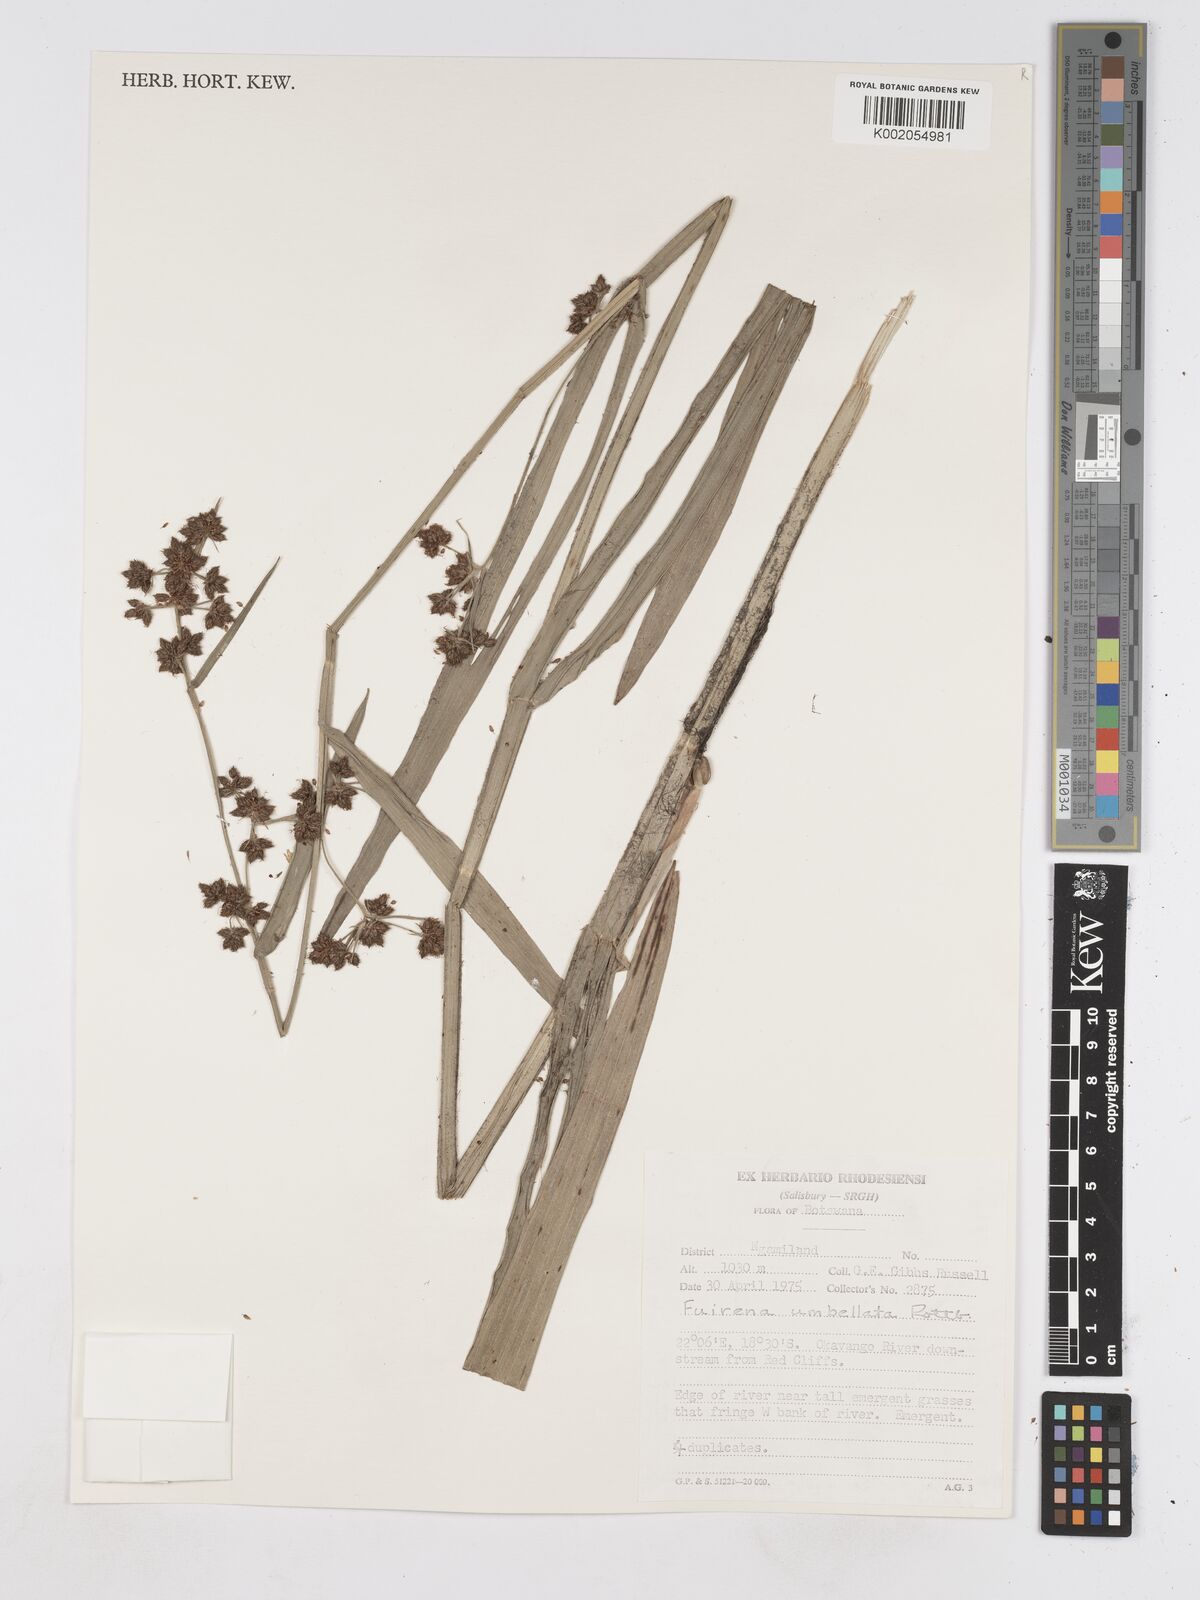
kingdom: Plantae
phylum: Tracheophyta
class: Liliopsida
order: Poales
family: Cyperaceae
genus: Fuirena
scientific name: Fuirena umbellata
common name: Yefen
